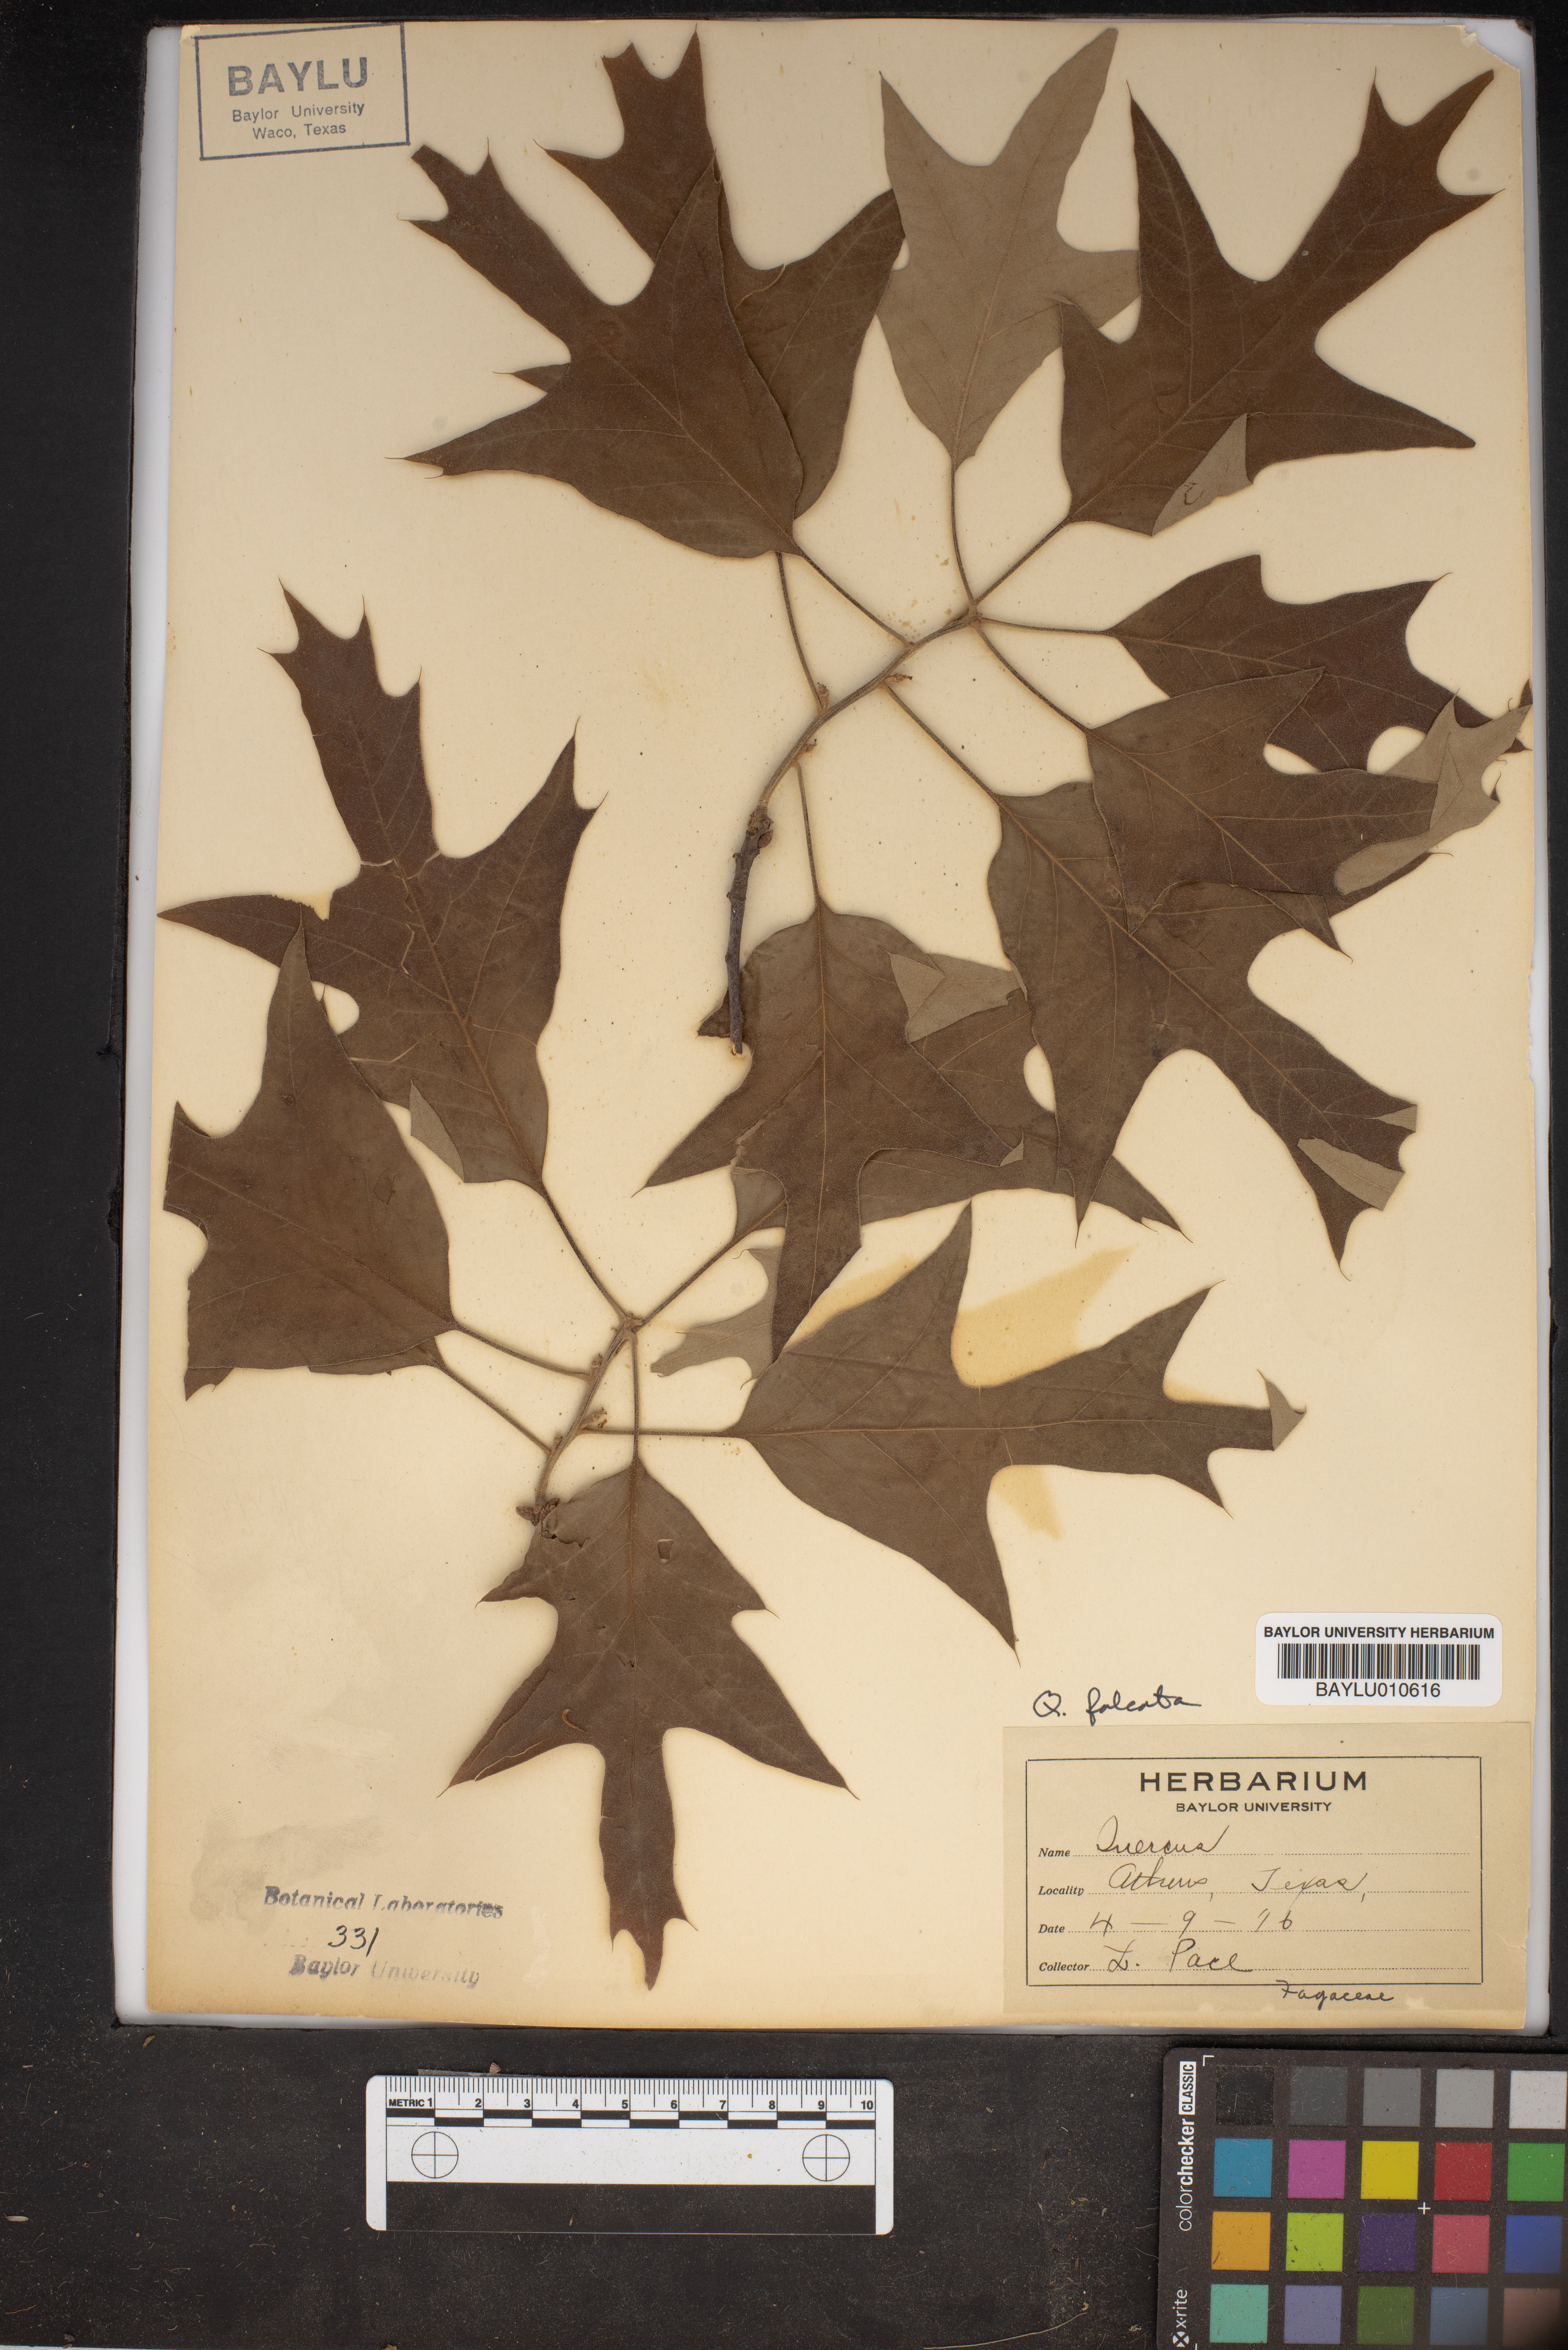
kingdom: Plantae
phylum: Tracheophyta
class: Magnoliopsida
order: Fagales
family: Fagaceae
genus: Quercus
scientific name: Quercus falcata
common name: Southern red oak
